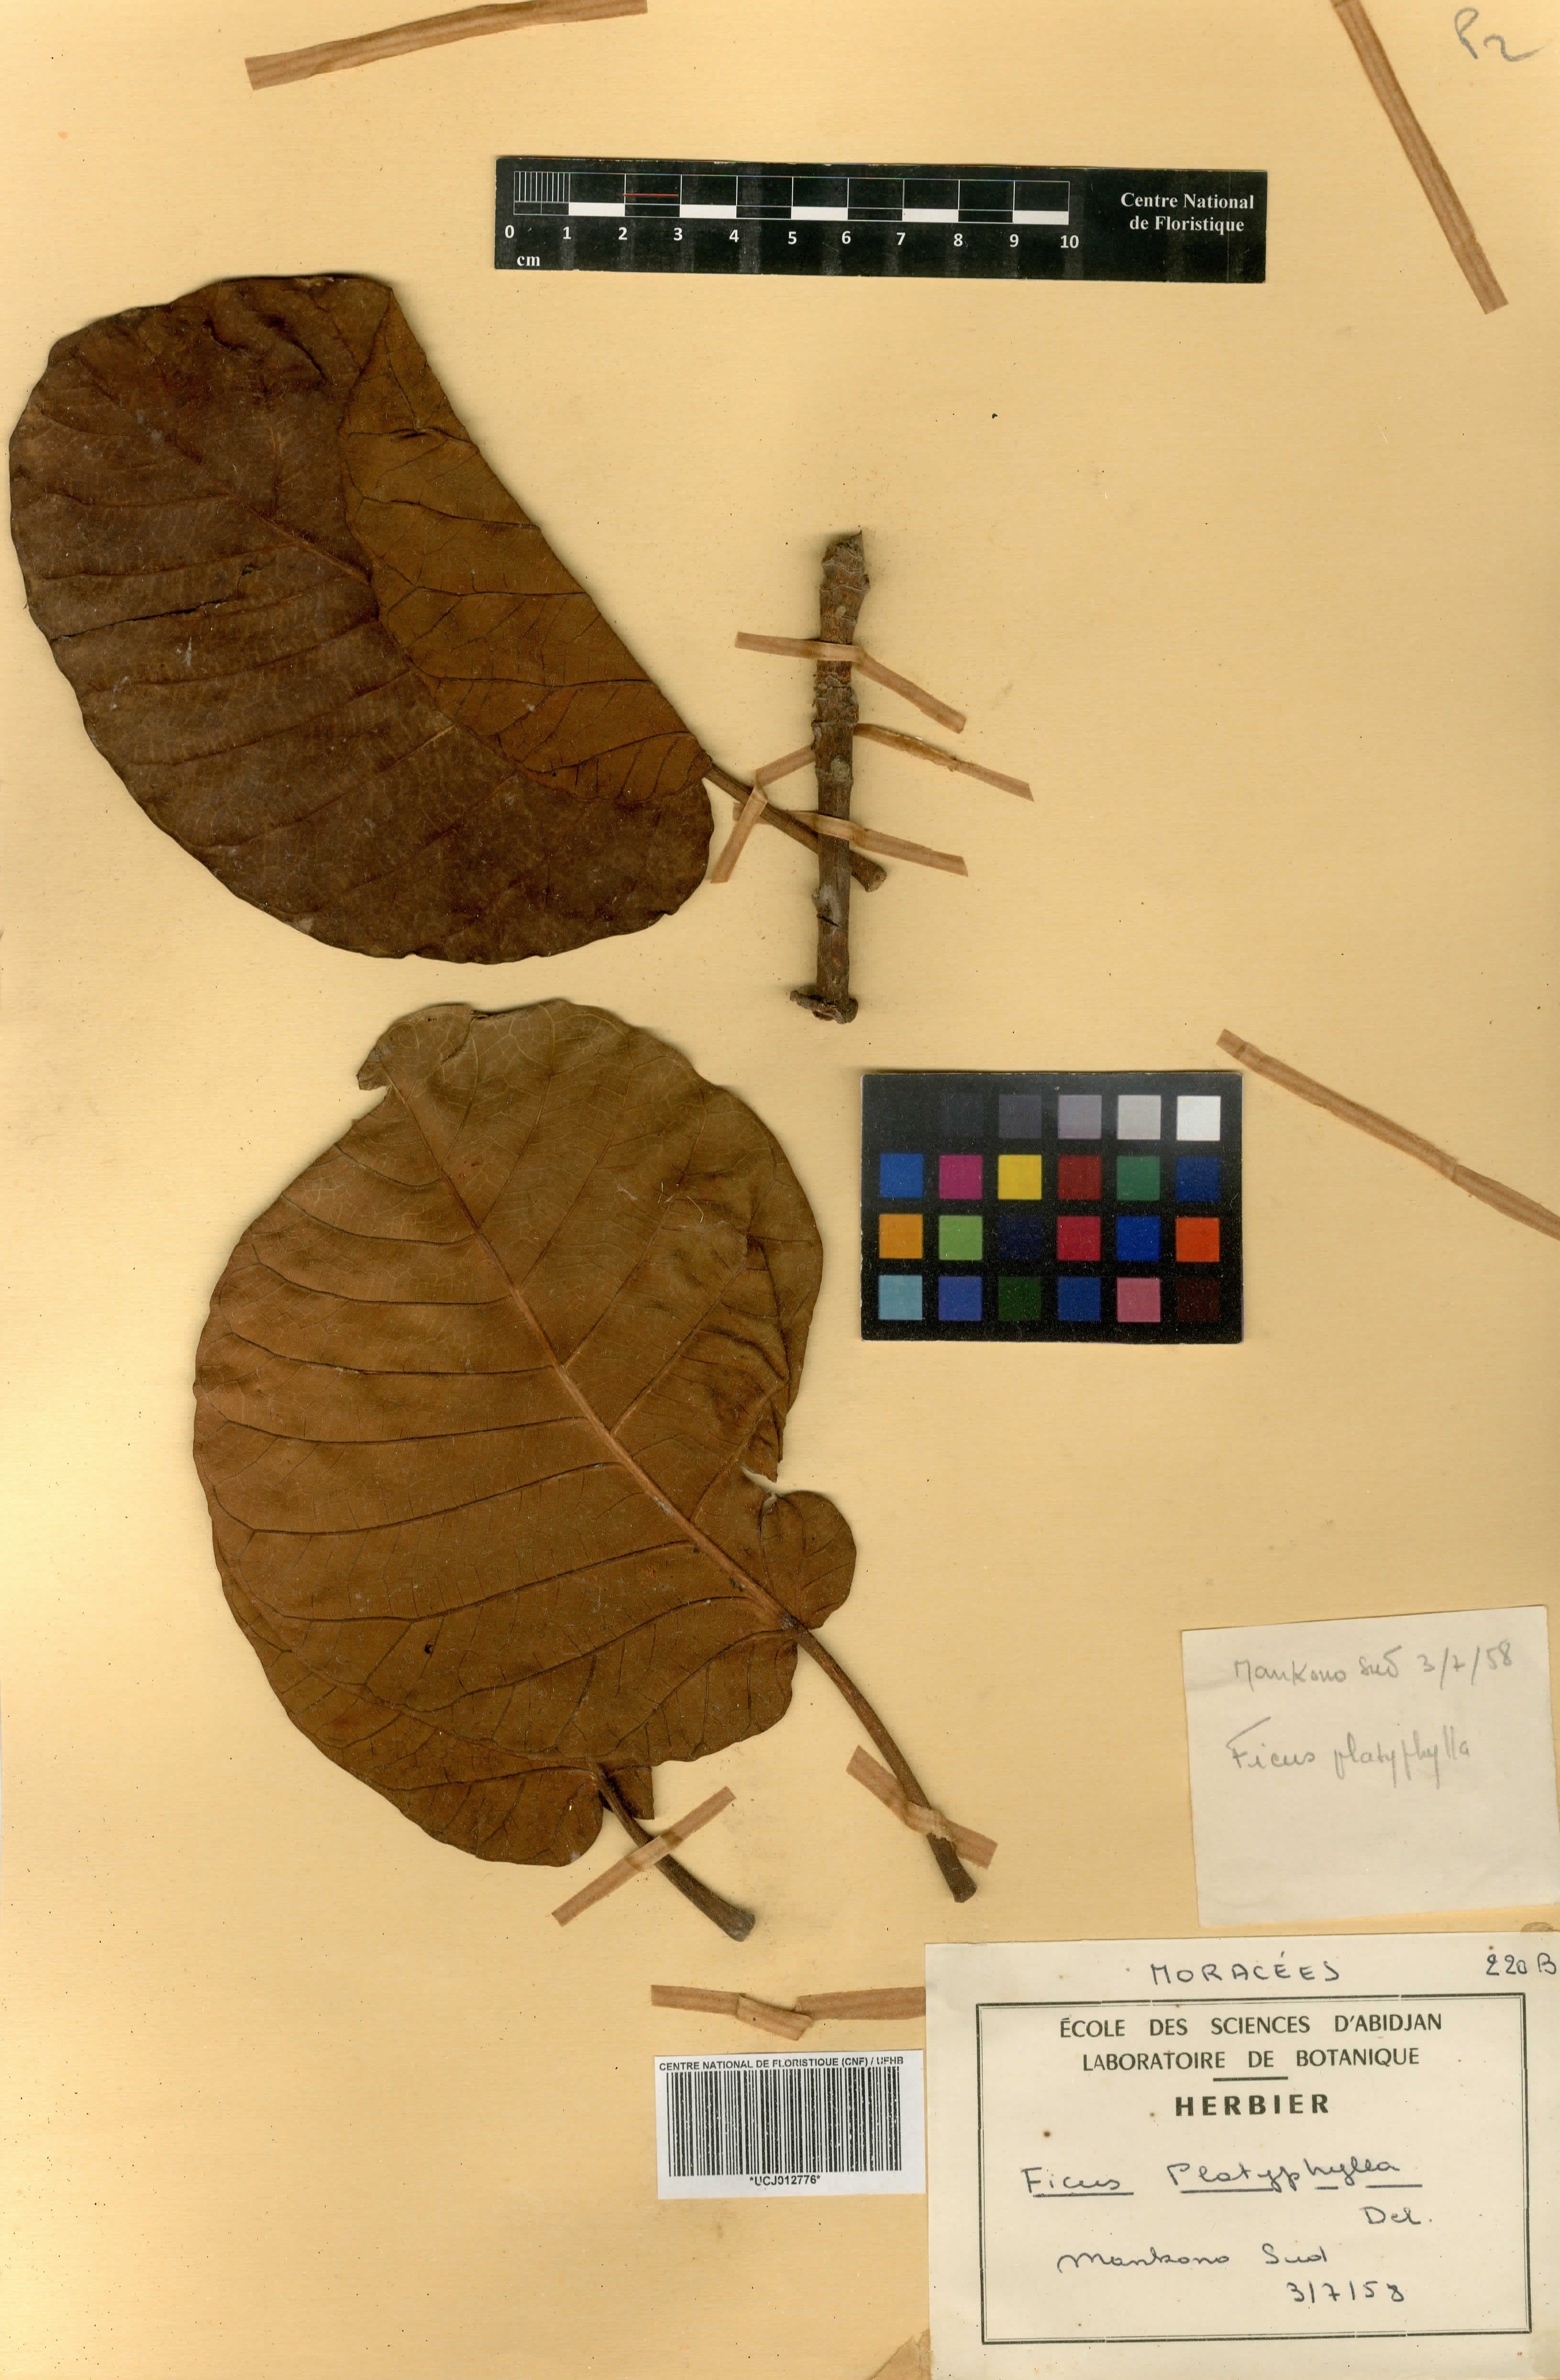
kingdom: Plantae
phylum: Tracheophyta
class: Magnoliopsida
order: Rosales
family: Moraceae
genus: Ficus
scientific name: Ficus platyphylla
